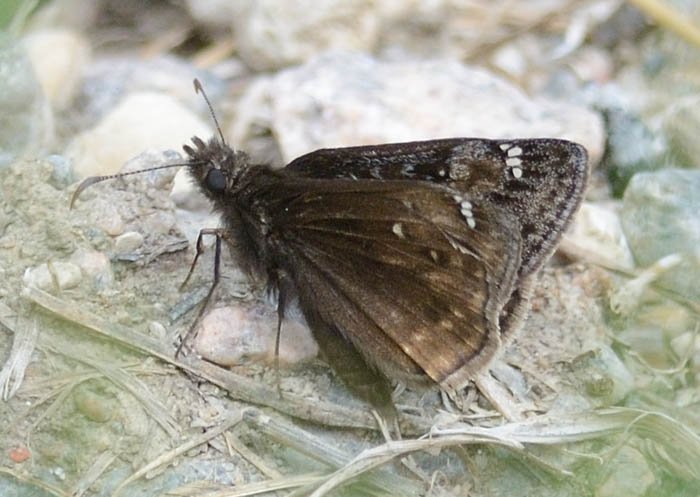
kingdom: Animalia
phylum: Arthropoda
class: Insecta
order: Lepidoptera
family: Hesperiidae
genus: Gesta
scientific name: Gesta
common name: Juvenal's Duskywing
